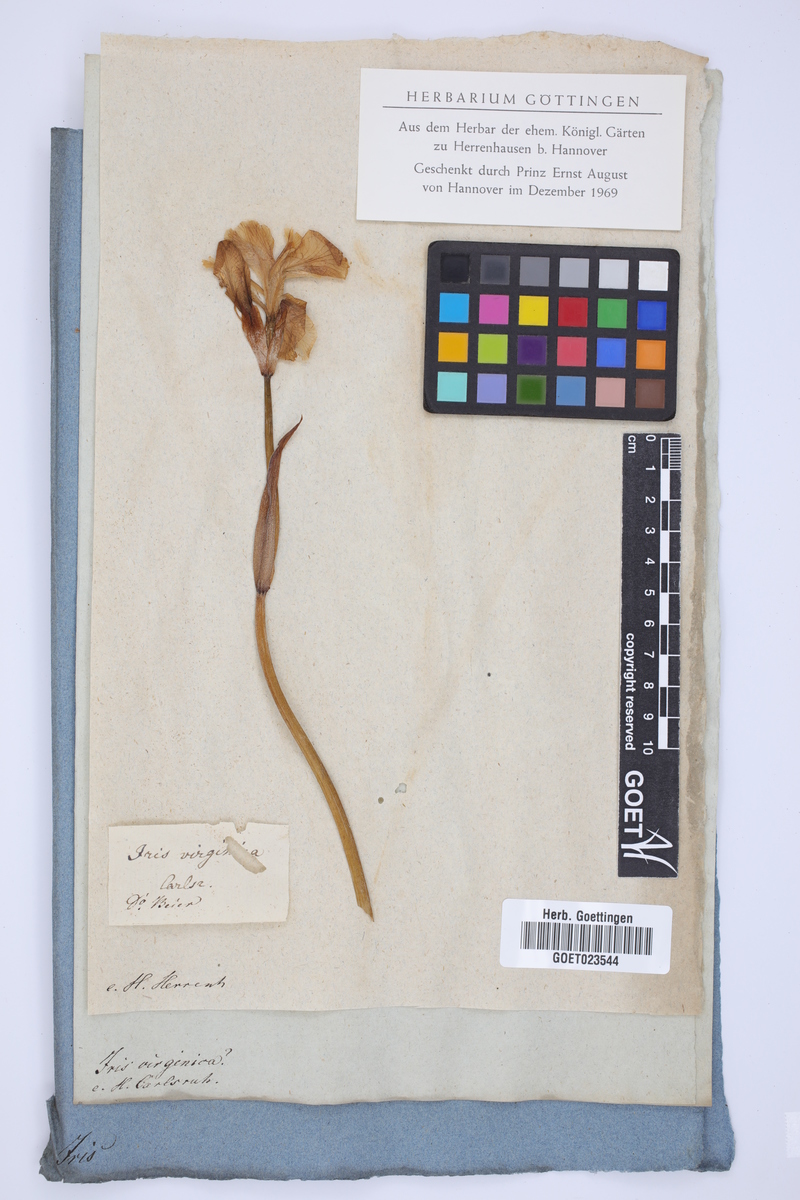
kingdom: Plantae
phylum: Tracheophyta
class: Liliopsida
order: Asparagales
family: Iridaceae
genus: Iris
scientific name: Iris virginica
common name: Southern blue flag
